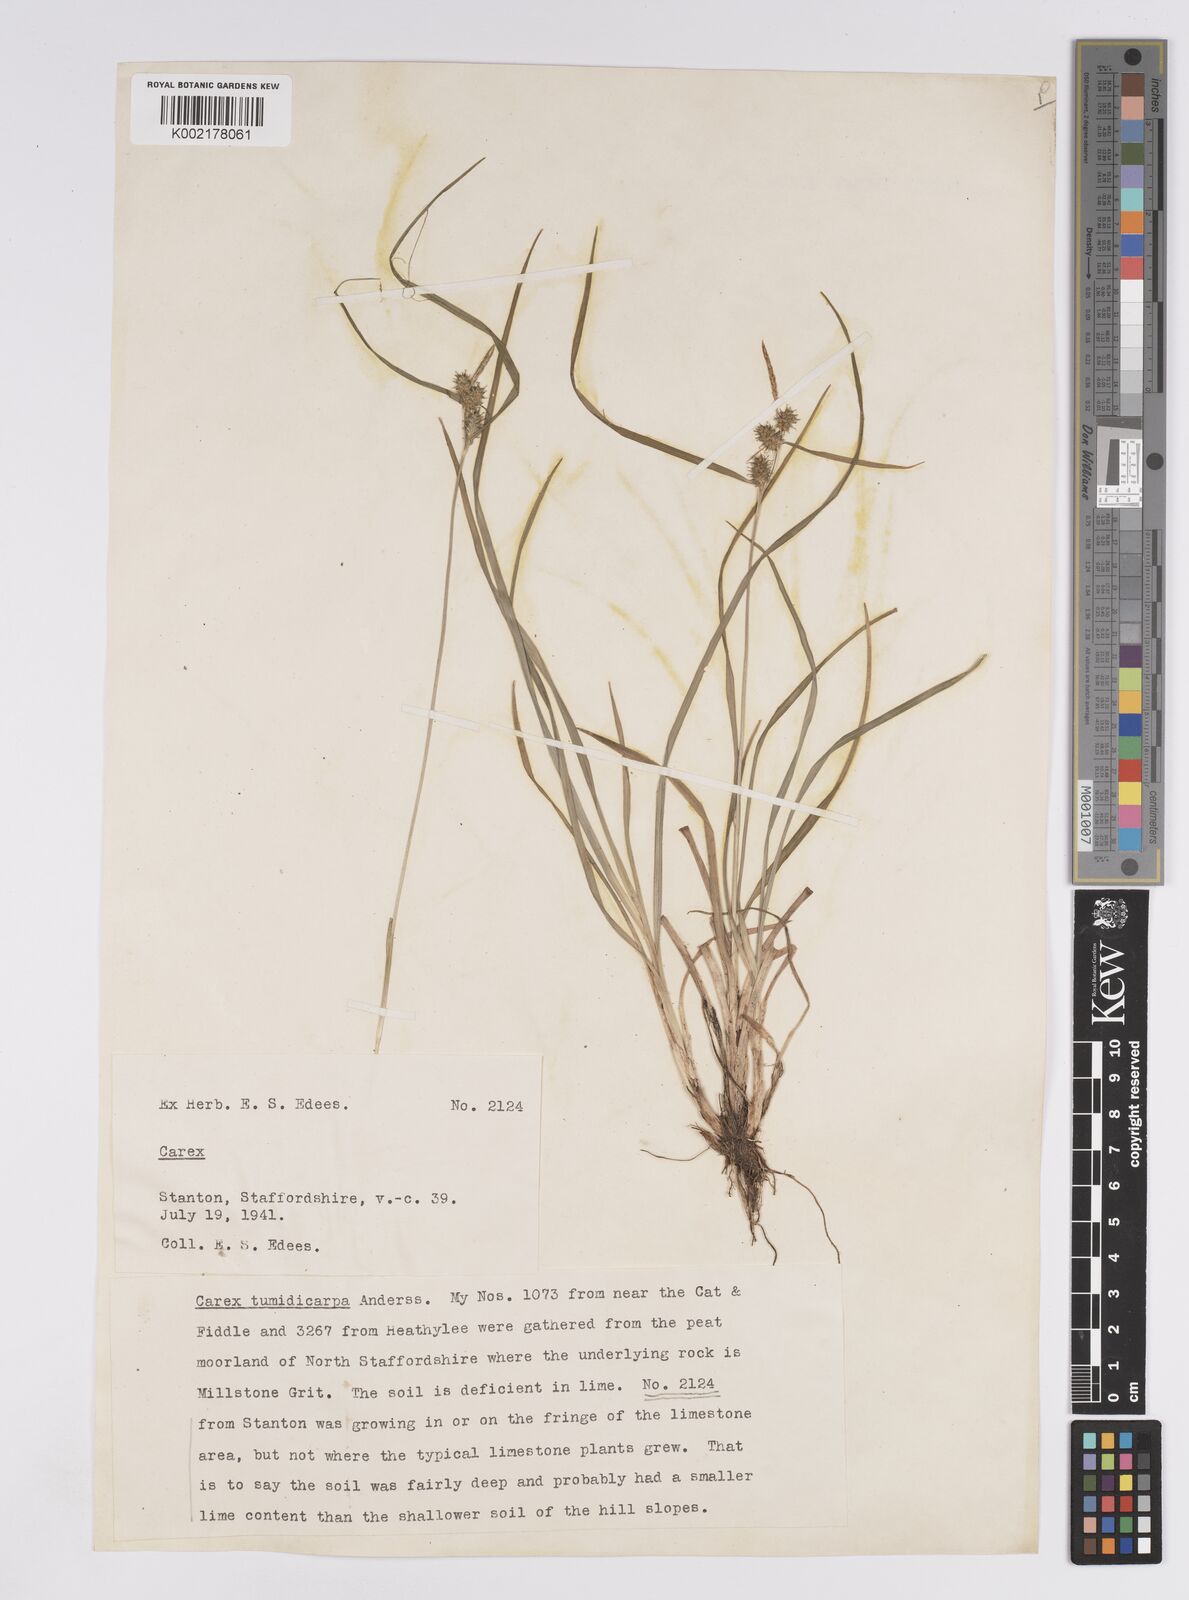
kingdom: Plantae
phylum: Tracheophyta
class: Liliopsida
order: Poales
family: Cyperaceae
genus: Carex
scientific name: Carex demissa
